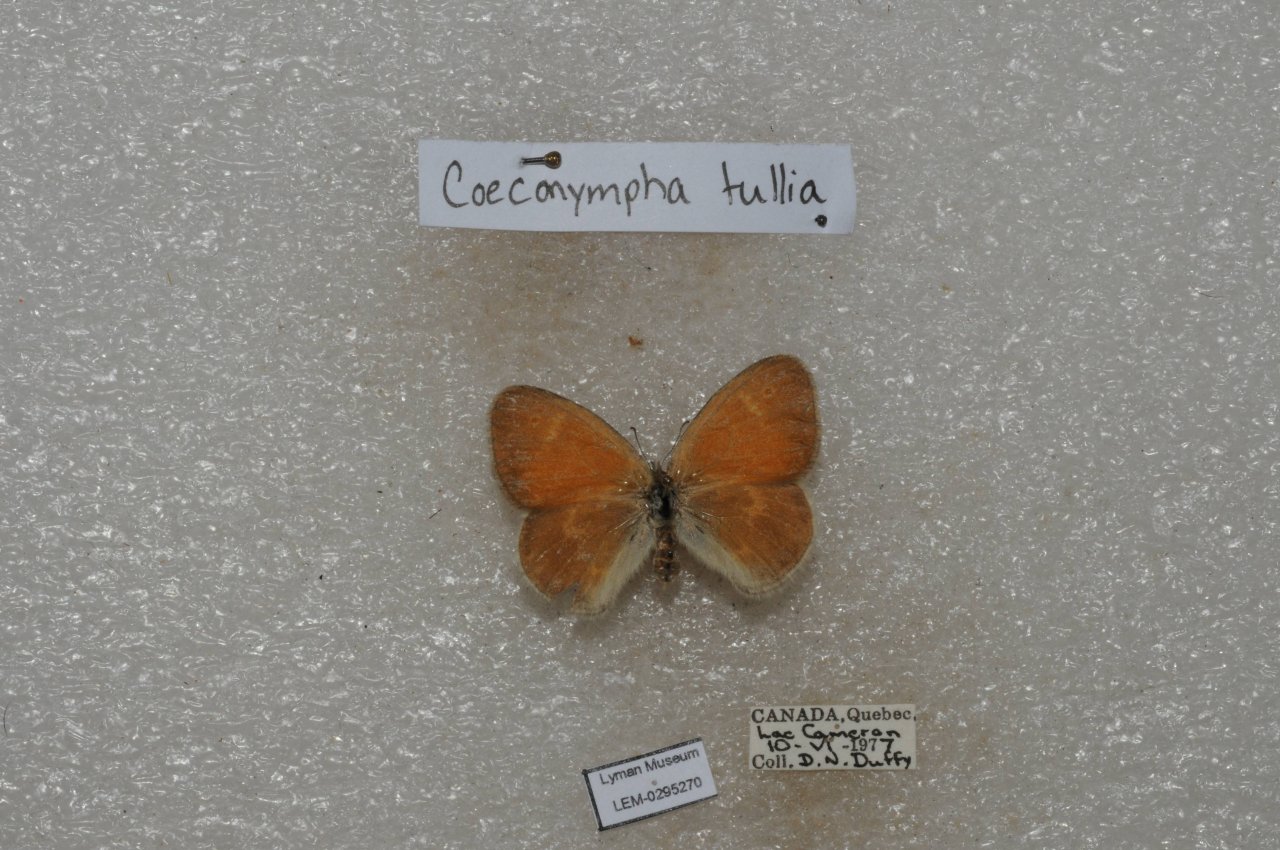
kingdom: Animalia
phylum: Arthropoda
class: Insecta
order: Lepidoptera
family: Nymphalidae
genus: Coenonympha
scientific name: Coenonympha tullia
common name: Large Heath
